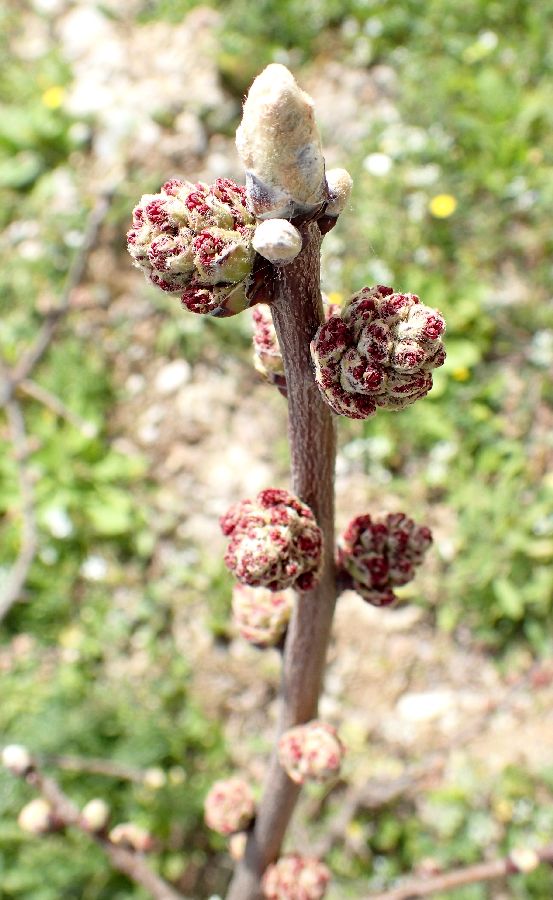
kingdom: Plantae
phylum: Tracheophyta
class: Magnoliopsida
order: Sapindales
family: Anacardiaceae
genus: Pistacia
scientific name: Pistacia lentiscus
